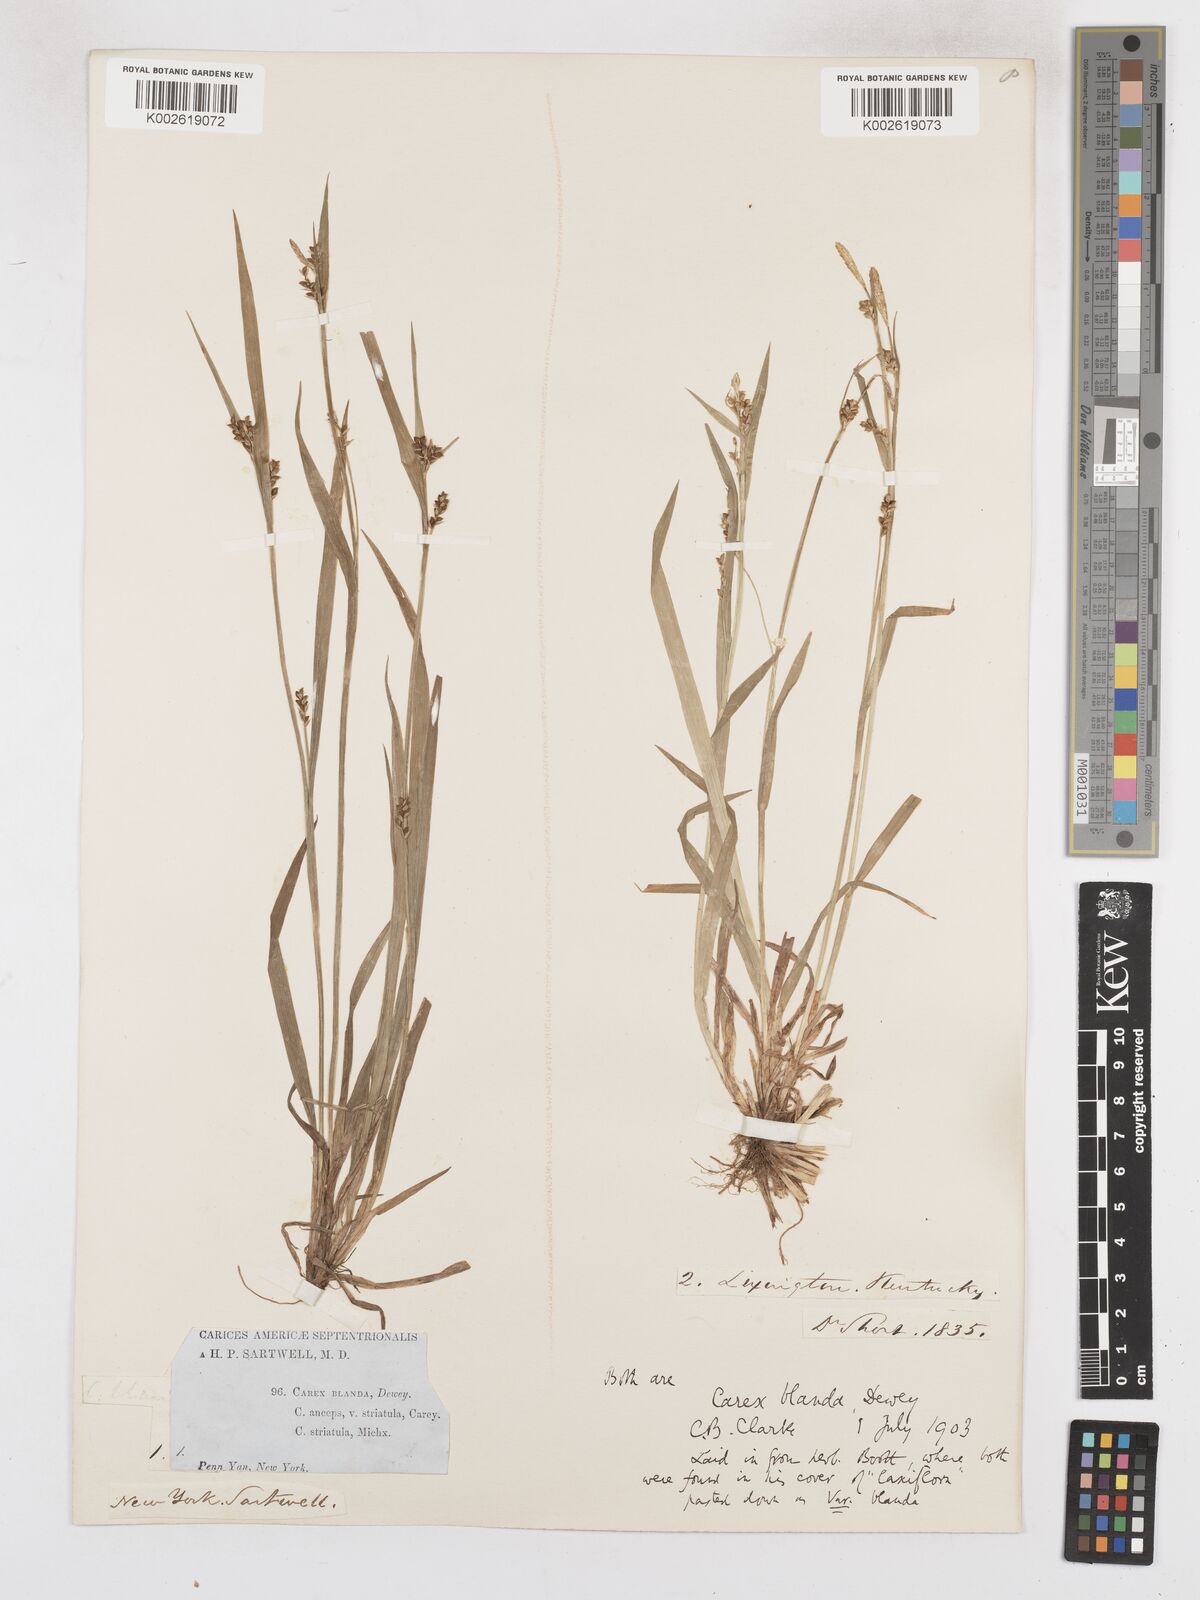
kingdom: Plantae
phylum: Tracheophyta
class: Liliopsida
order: Poales
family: Cyperaceae
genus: Carex
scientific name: Carex blanda
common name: Bland sedge
